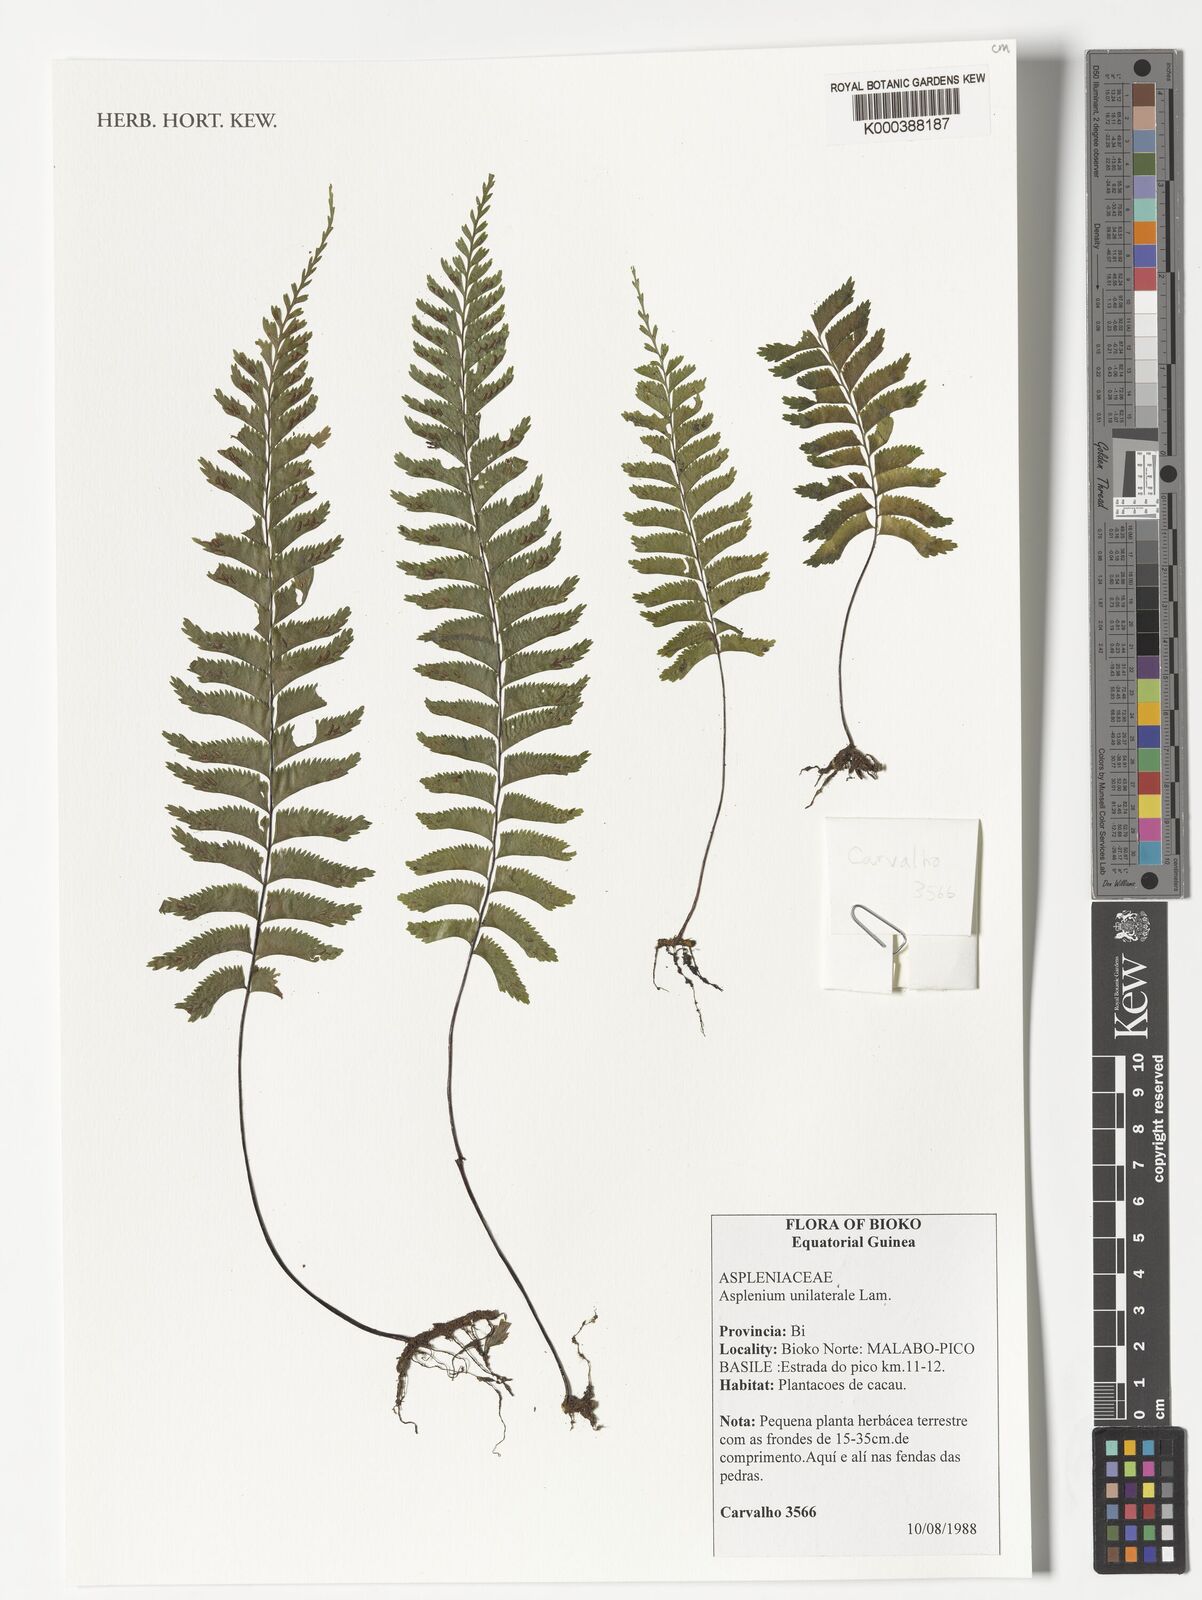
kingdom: Plantae
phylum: Tracheophyta
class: Polypodiopsida
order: Polypodiales
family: Aspleniaceae
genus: Hymenasplenium
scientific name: Hymenasplenium unilaterale
